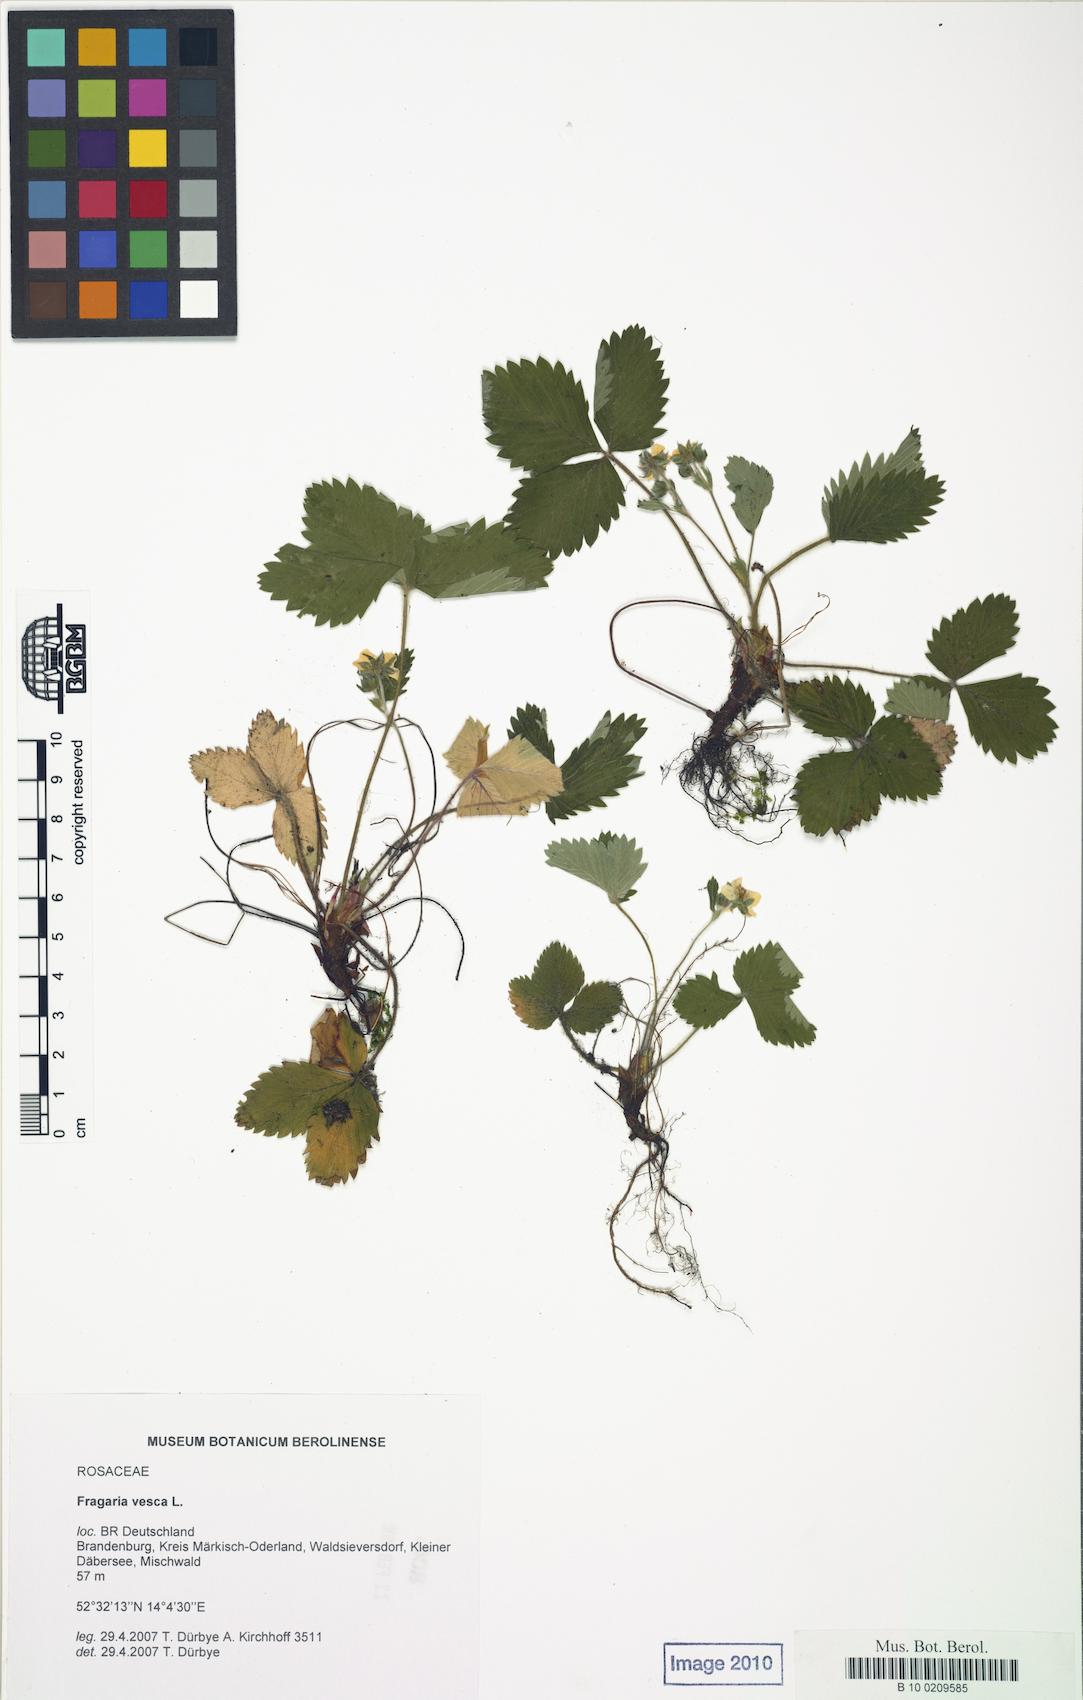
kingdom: Plantae
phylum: Tracheophyta
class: Magnoliopsida
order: Rosales
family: Rosaceae
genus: Fragaria
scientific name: Fragaria vesca
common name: Wild strawberry
